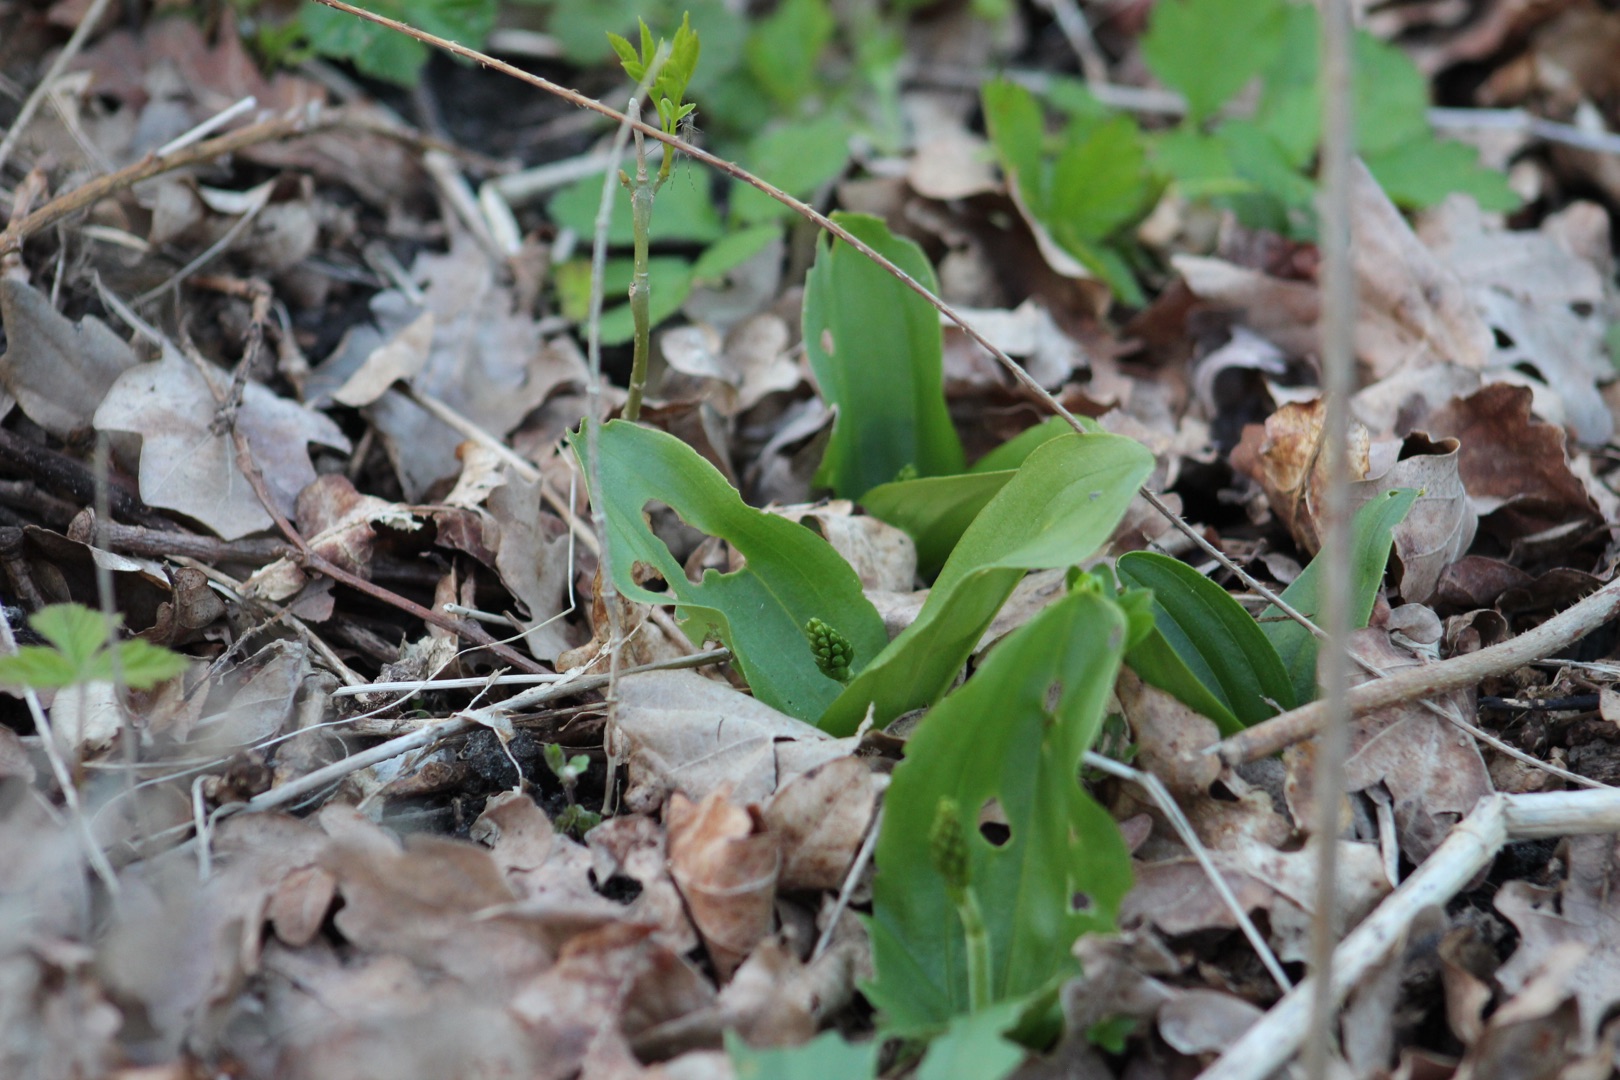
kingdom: Plantae
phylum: Tracheophyta
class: Liliopsida
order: Asparagales
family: Orchidaceae
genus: Neottia
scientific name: Neottia ovata
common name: Ægbladet fliglæbe
